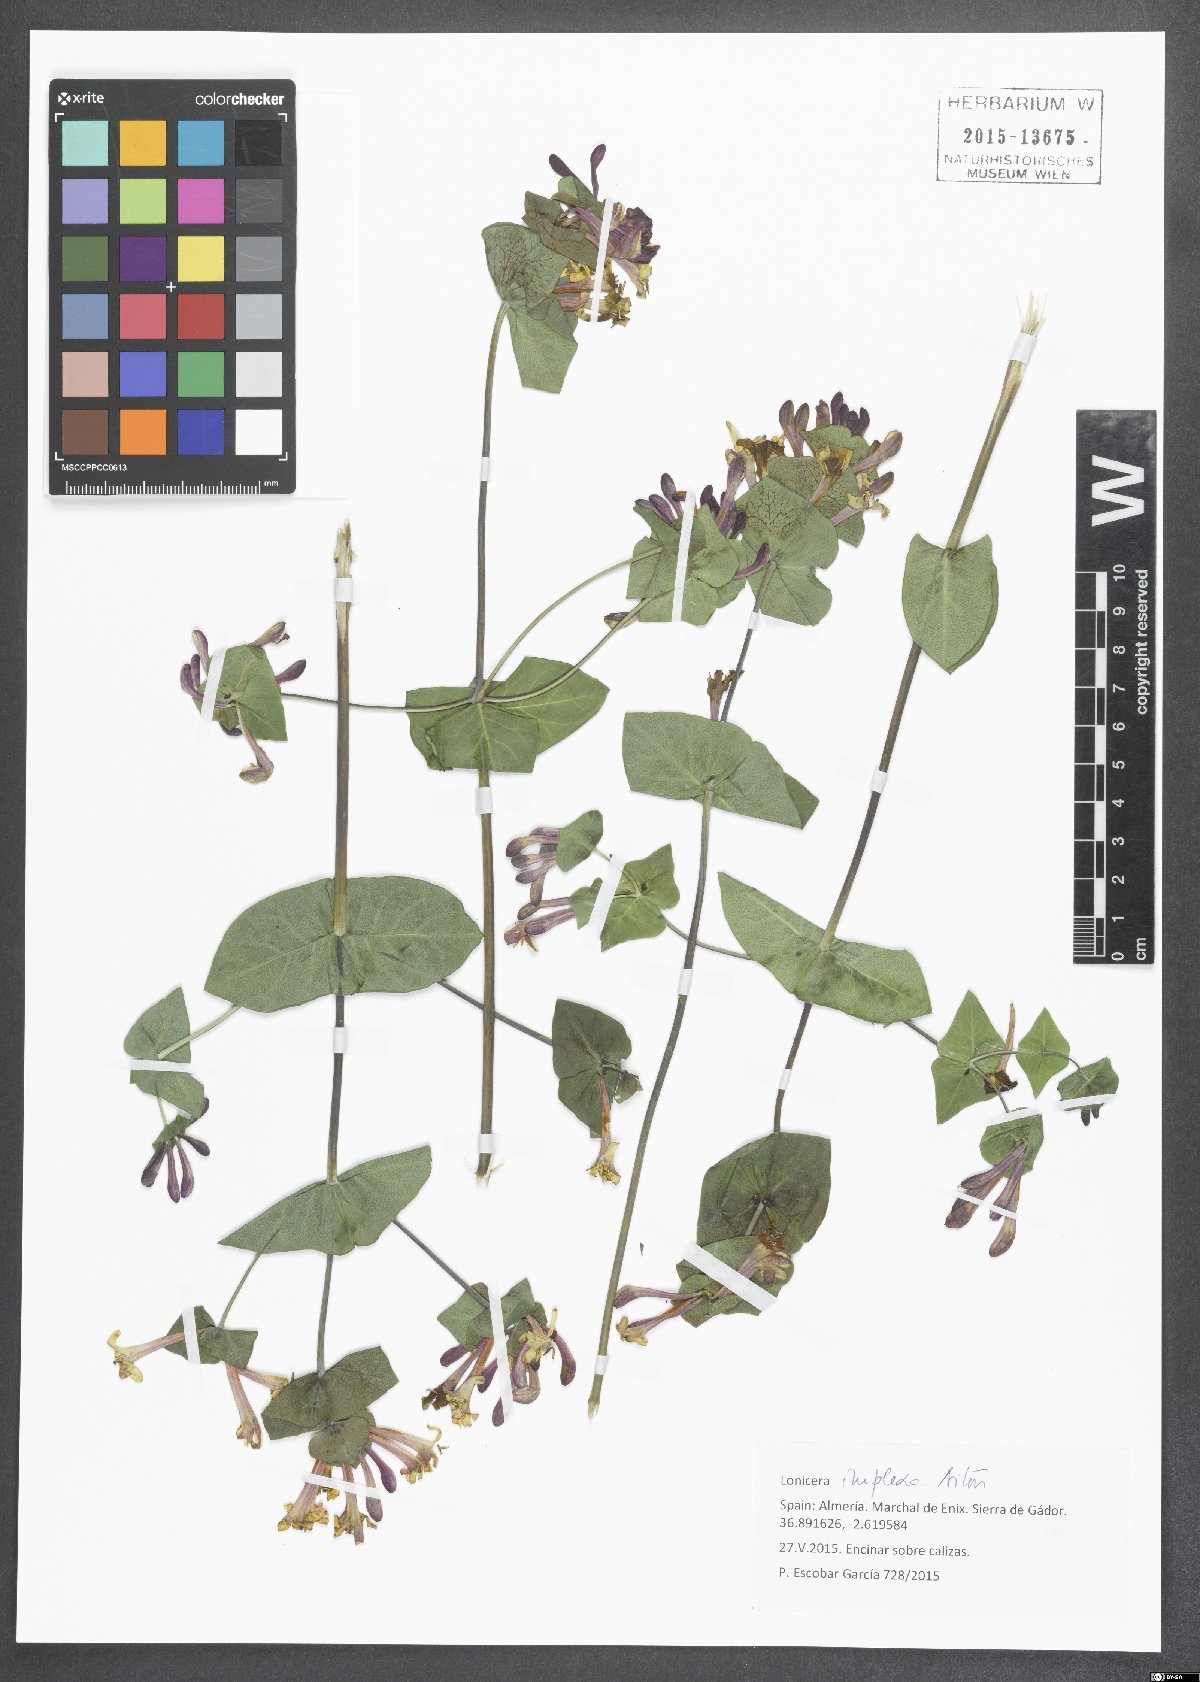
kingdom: Plantae
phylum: Tracheophyta
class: Magnoliopsida
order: Dipsacales
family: Caprifoliaceae
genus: Lonicera
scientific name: Lonicera implexa
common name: Minorca honeysuckle
